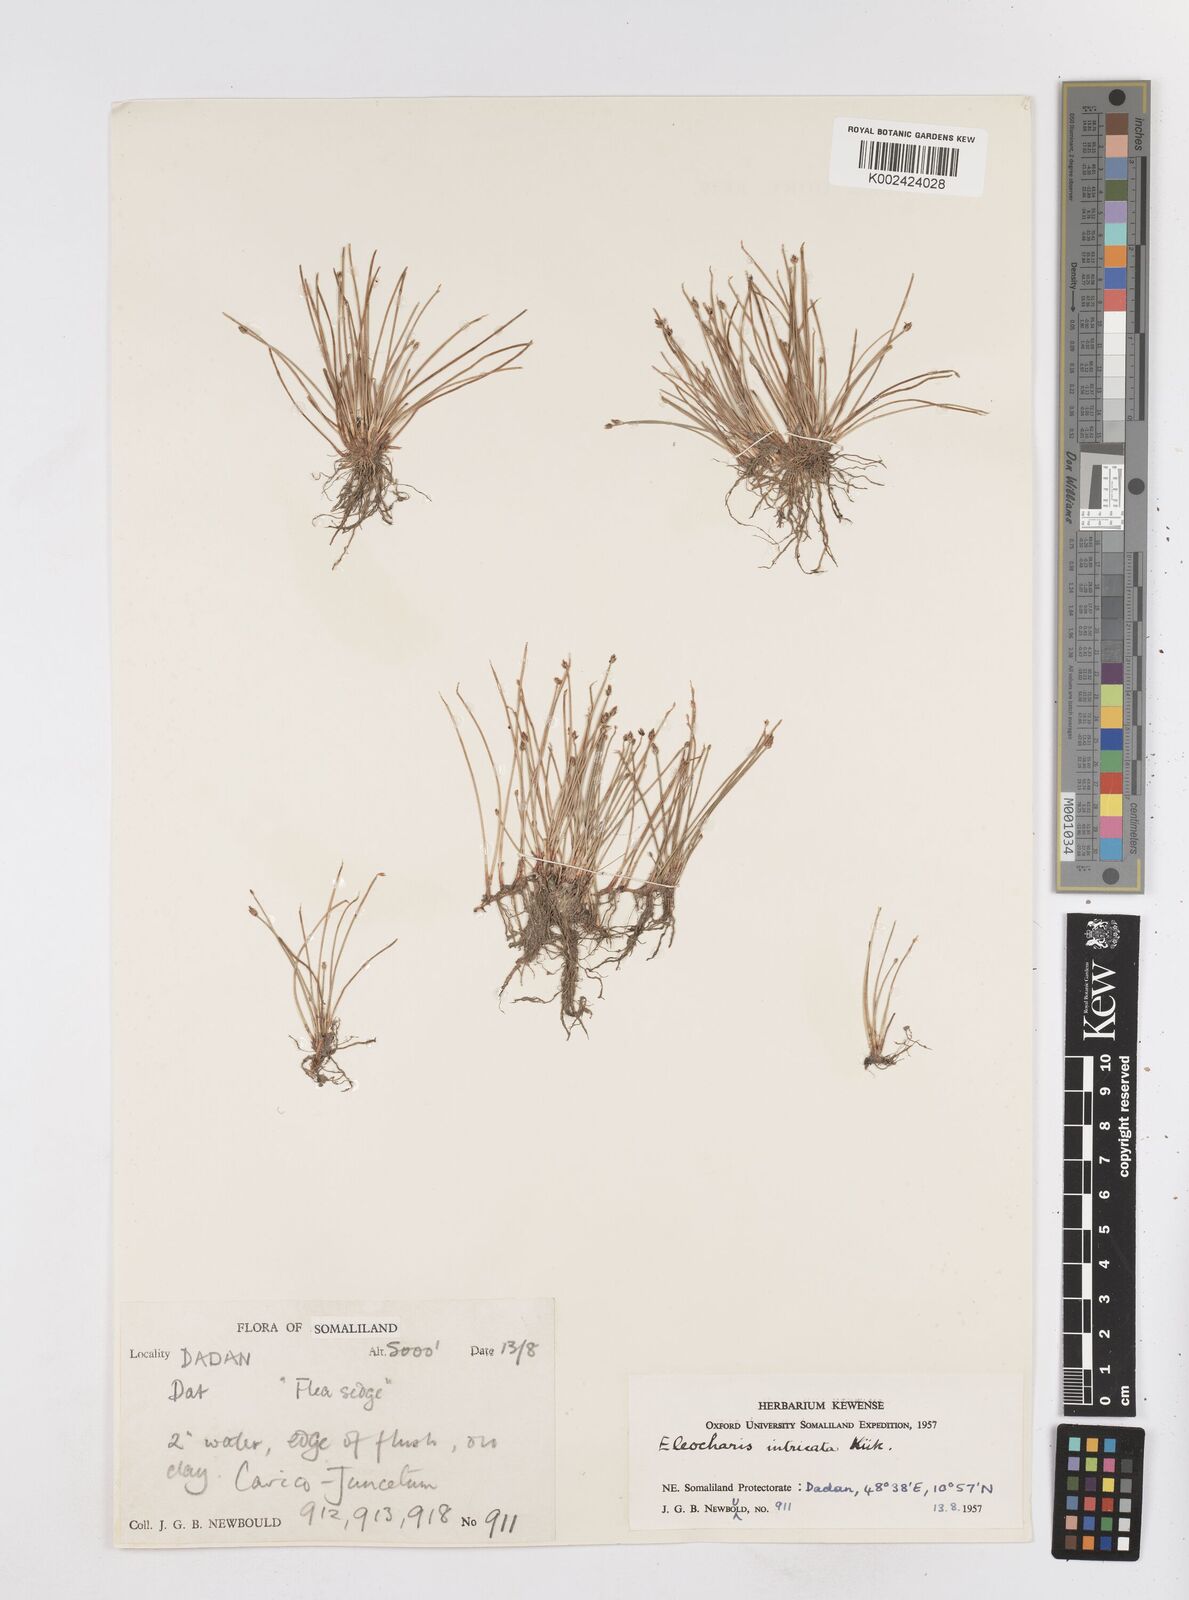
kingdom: Plantae
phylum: Tracheophyta
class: Liliopsida
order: Poales
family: Cyperaceae
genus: Eleocharis
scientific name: Eleocharis caduca
